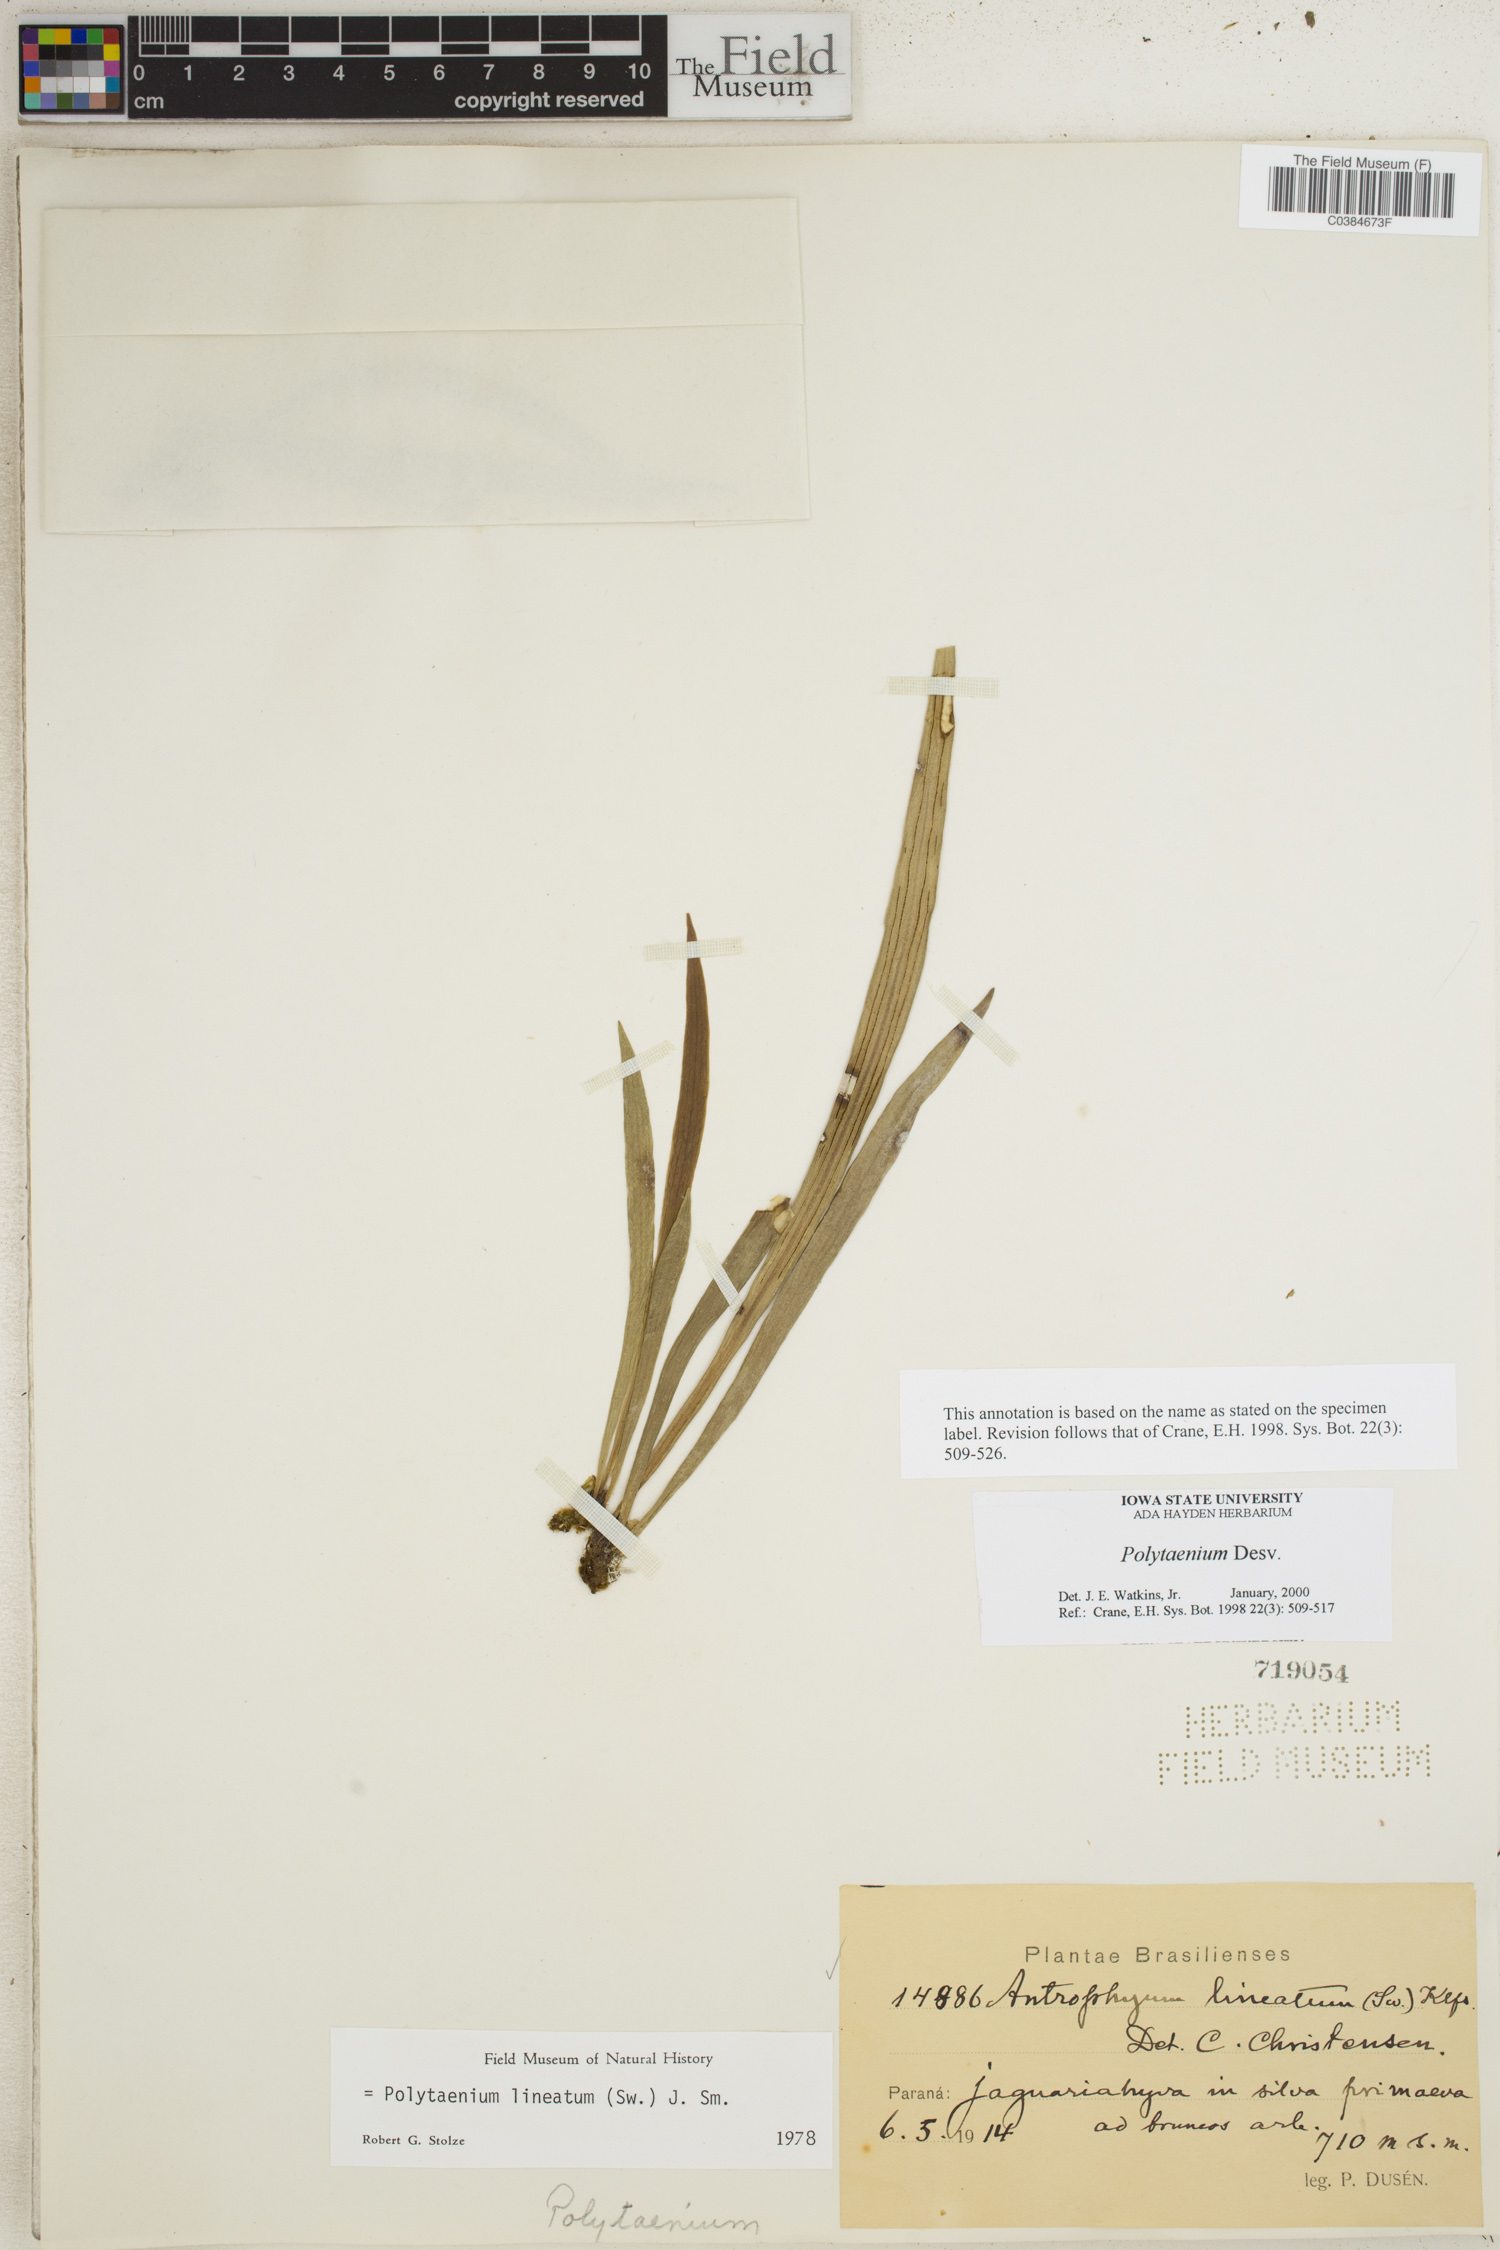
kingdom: Plantae
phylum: Tracheophyta
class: Polypodiopsida
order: Polypodiales
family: Pteridaceae
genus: Polytaenium
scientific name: Polytaenium
